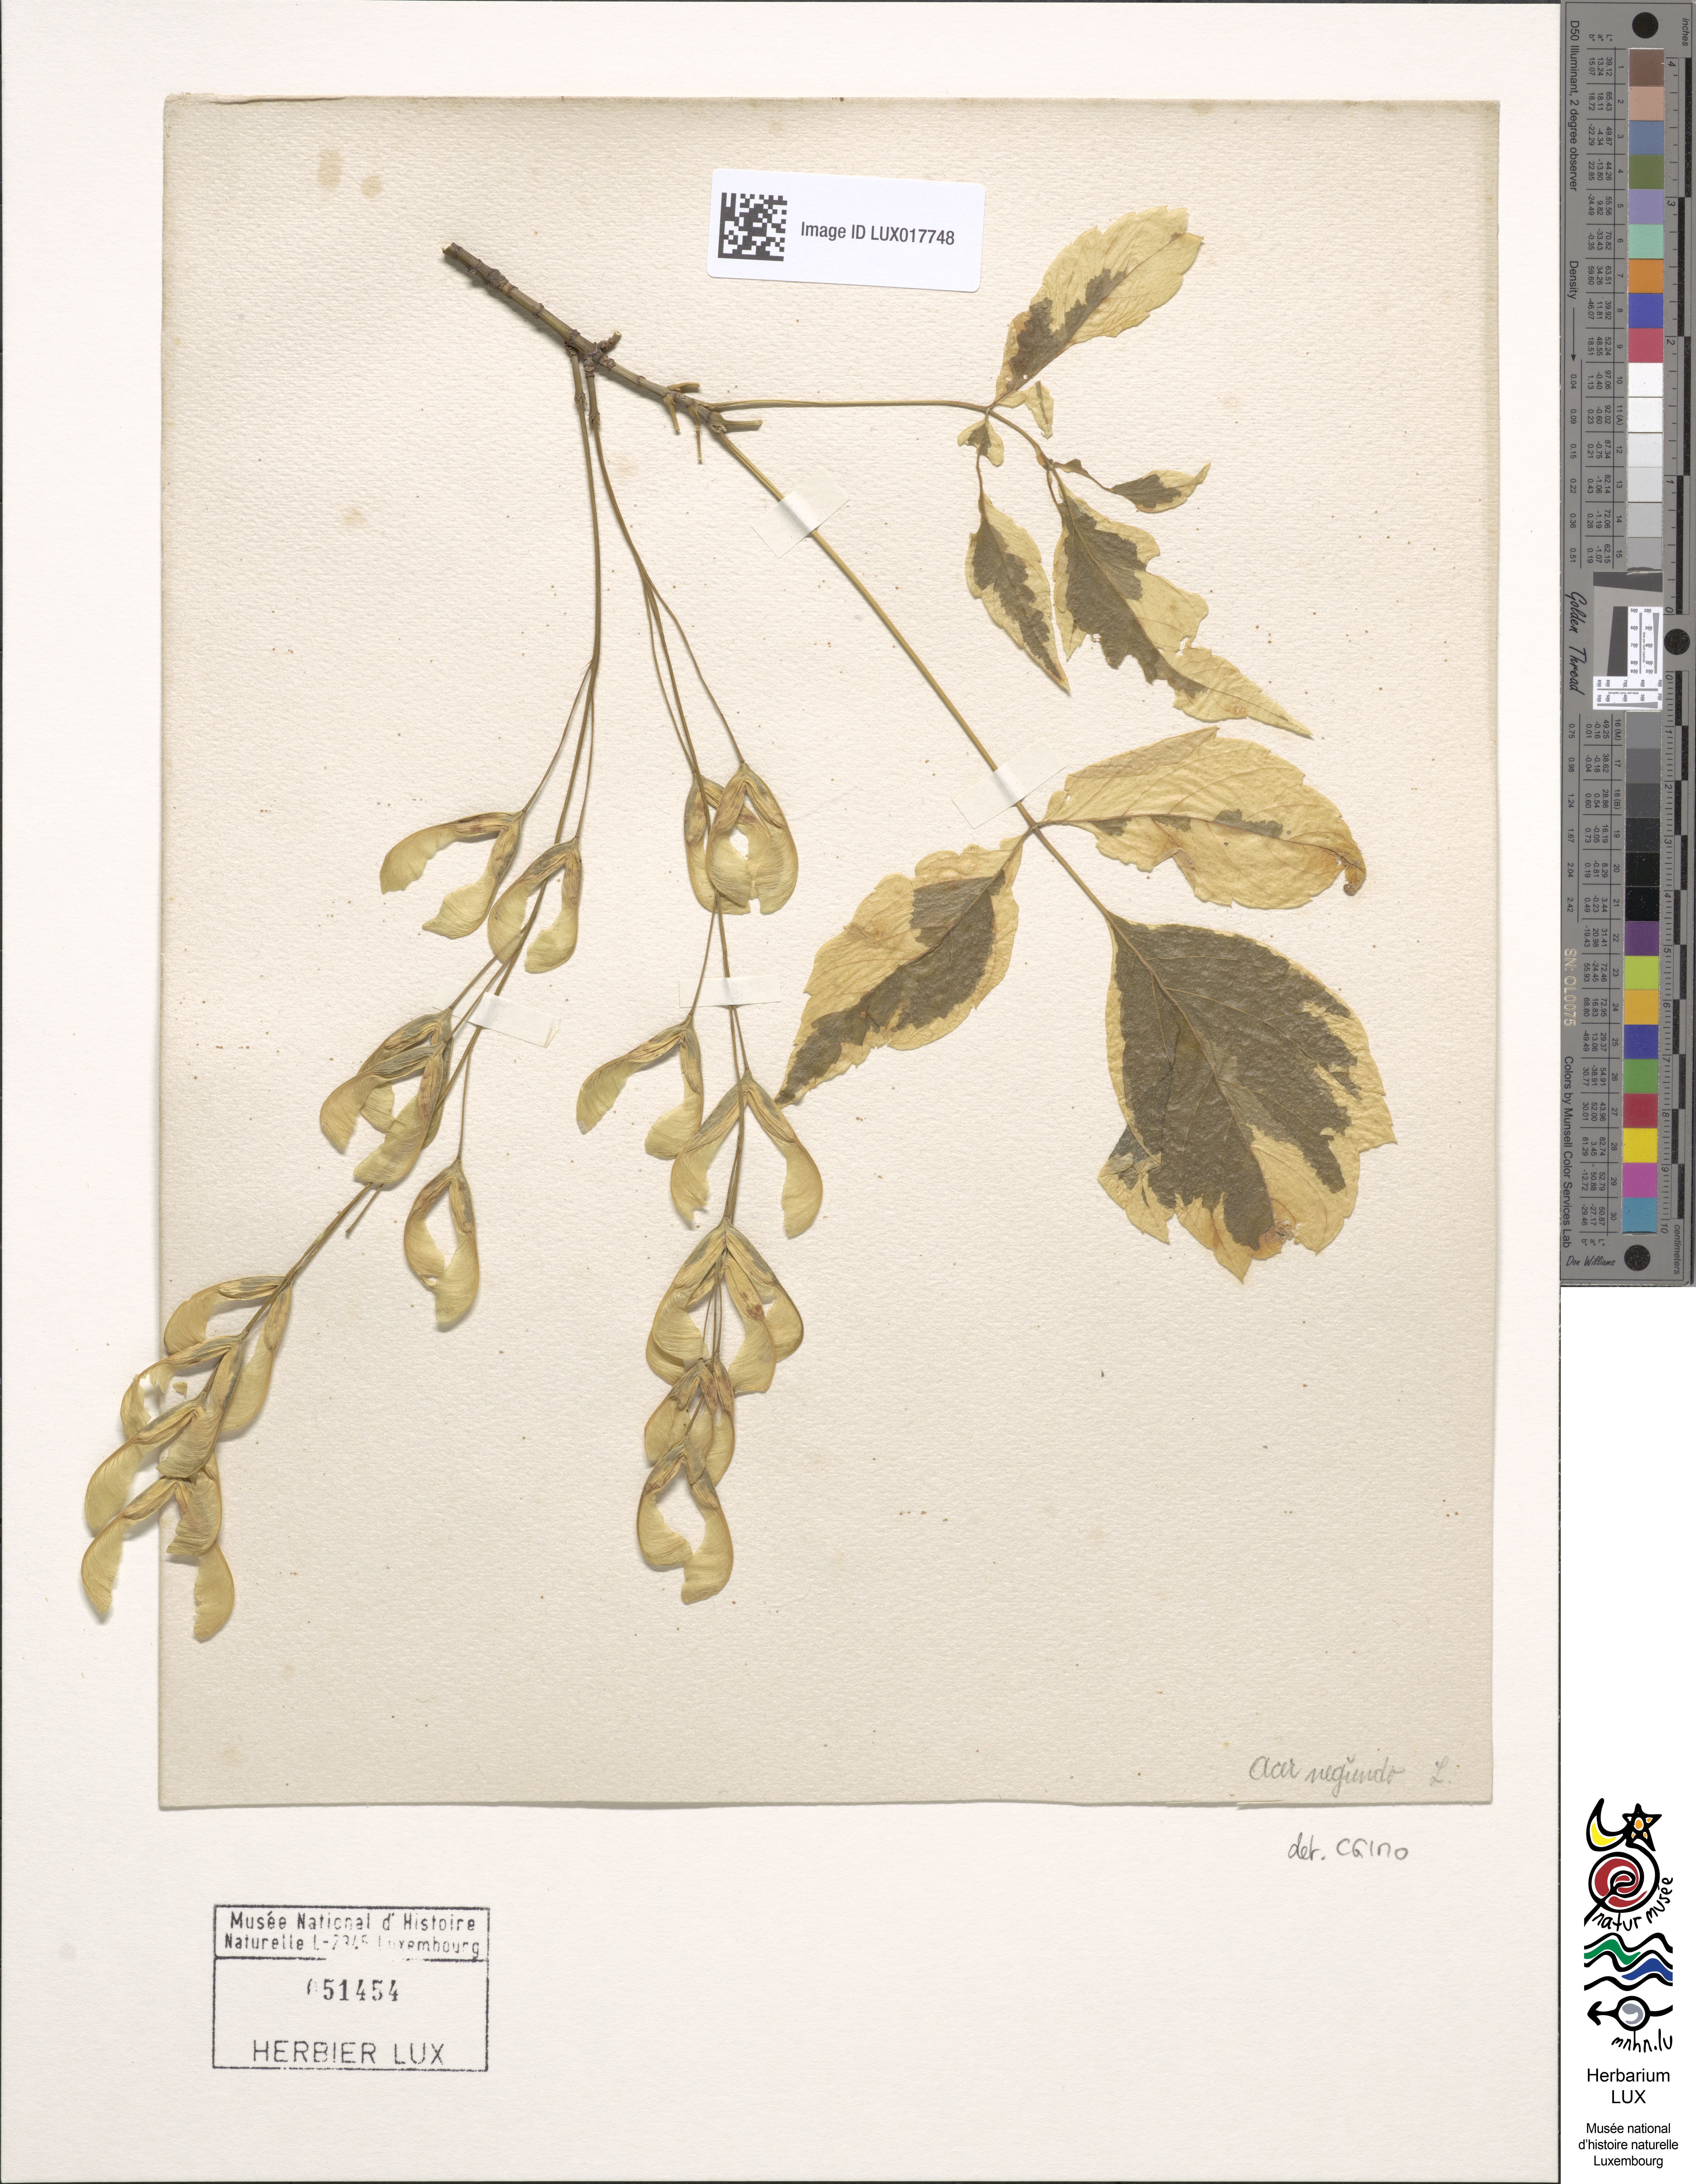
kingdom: Plantae
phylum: Tracheophyta
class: Magnoliopsida
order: Sapindales
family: Sapindaceae
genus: Acer
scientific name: Acer negundo
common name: Ashleaf maple
